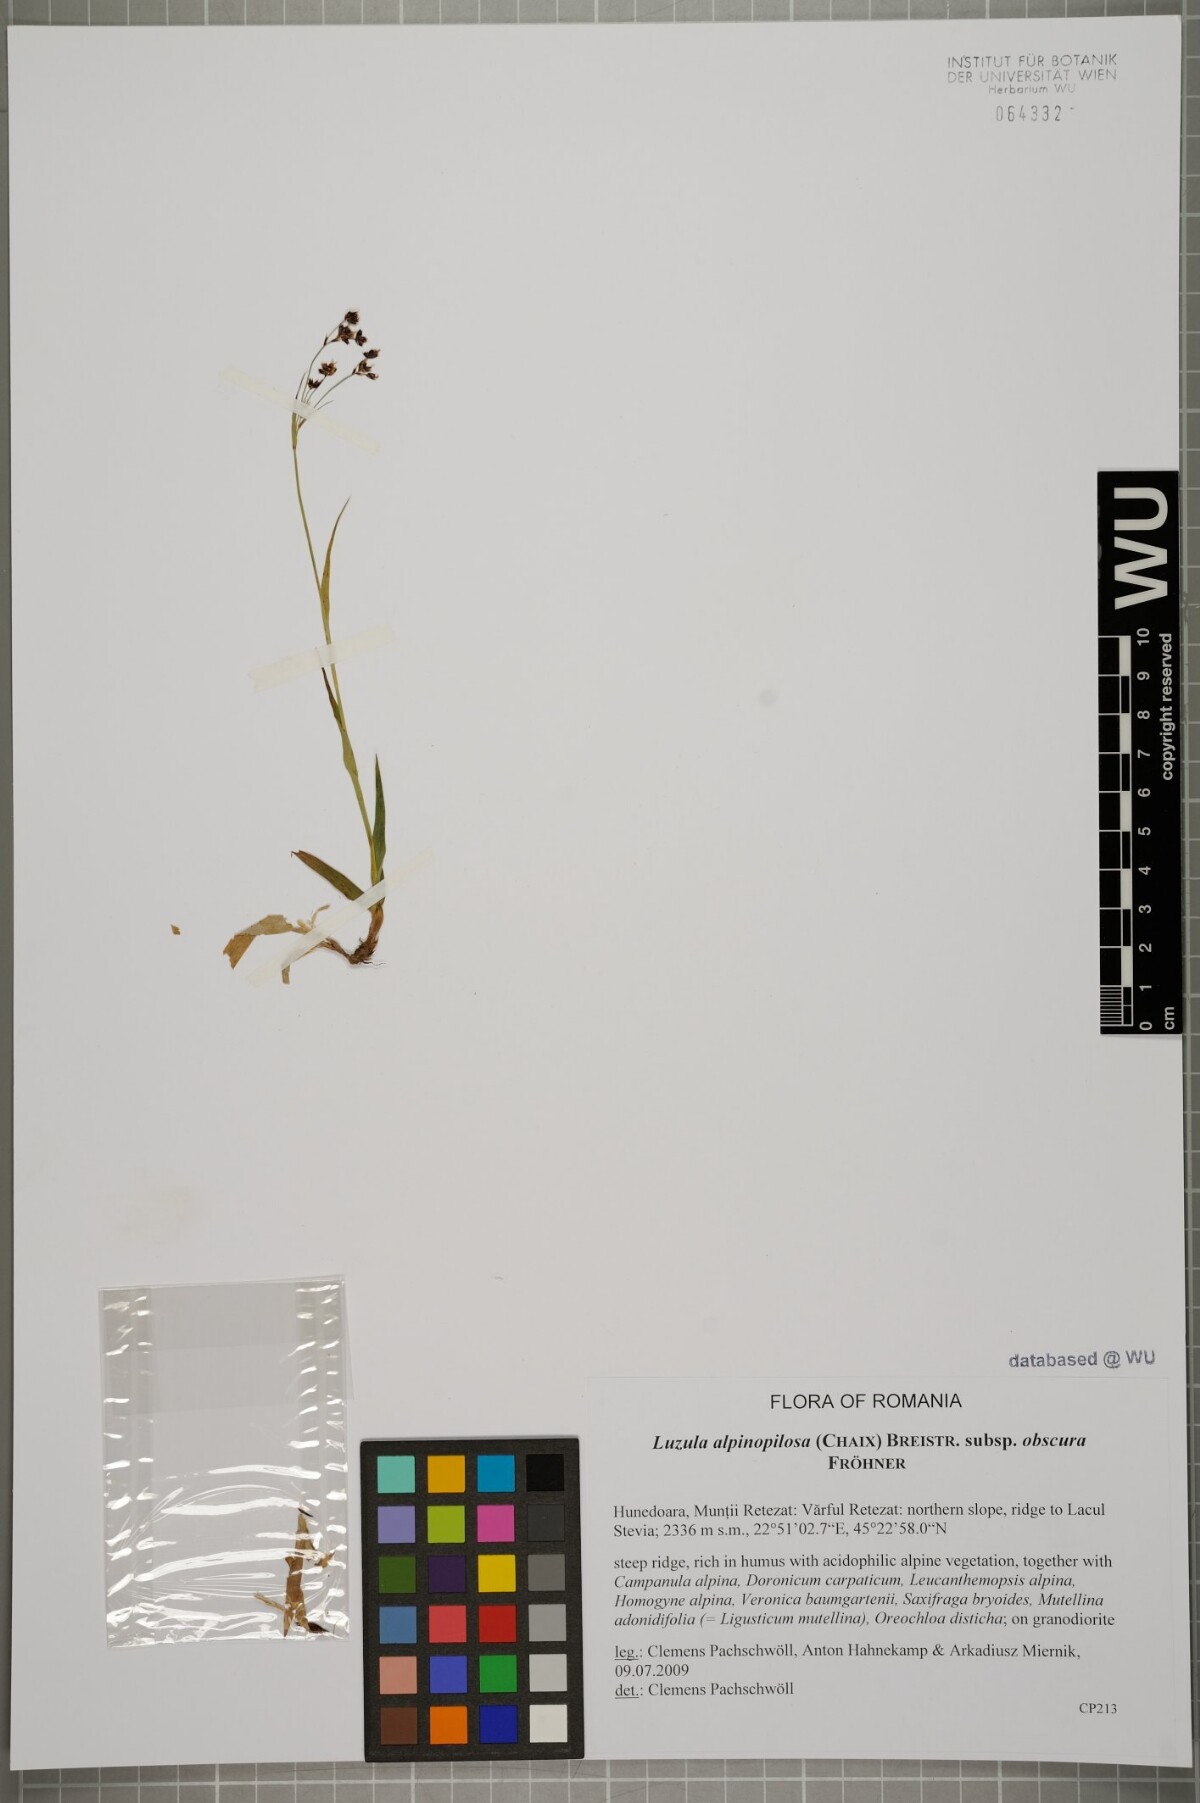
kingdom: Plantae
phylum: Tracheophyta
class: Liliopsida
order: Poales
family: Juncaceae
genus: Luzula
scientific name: Luzula alpinopilosa
